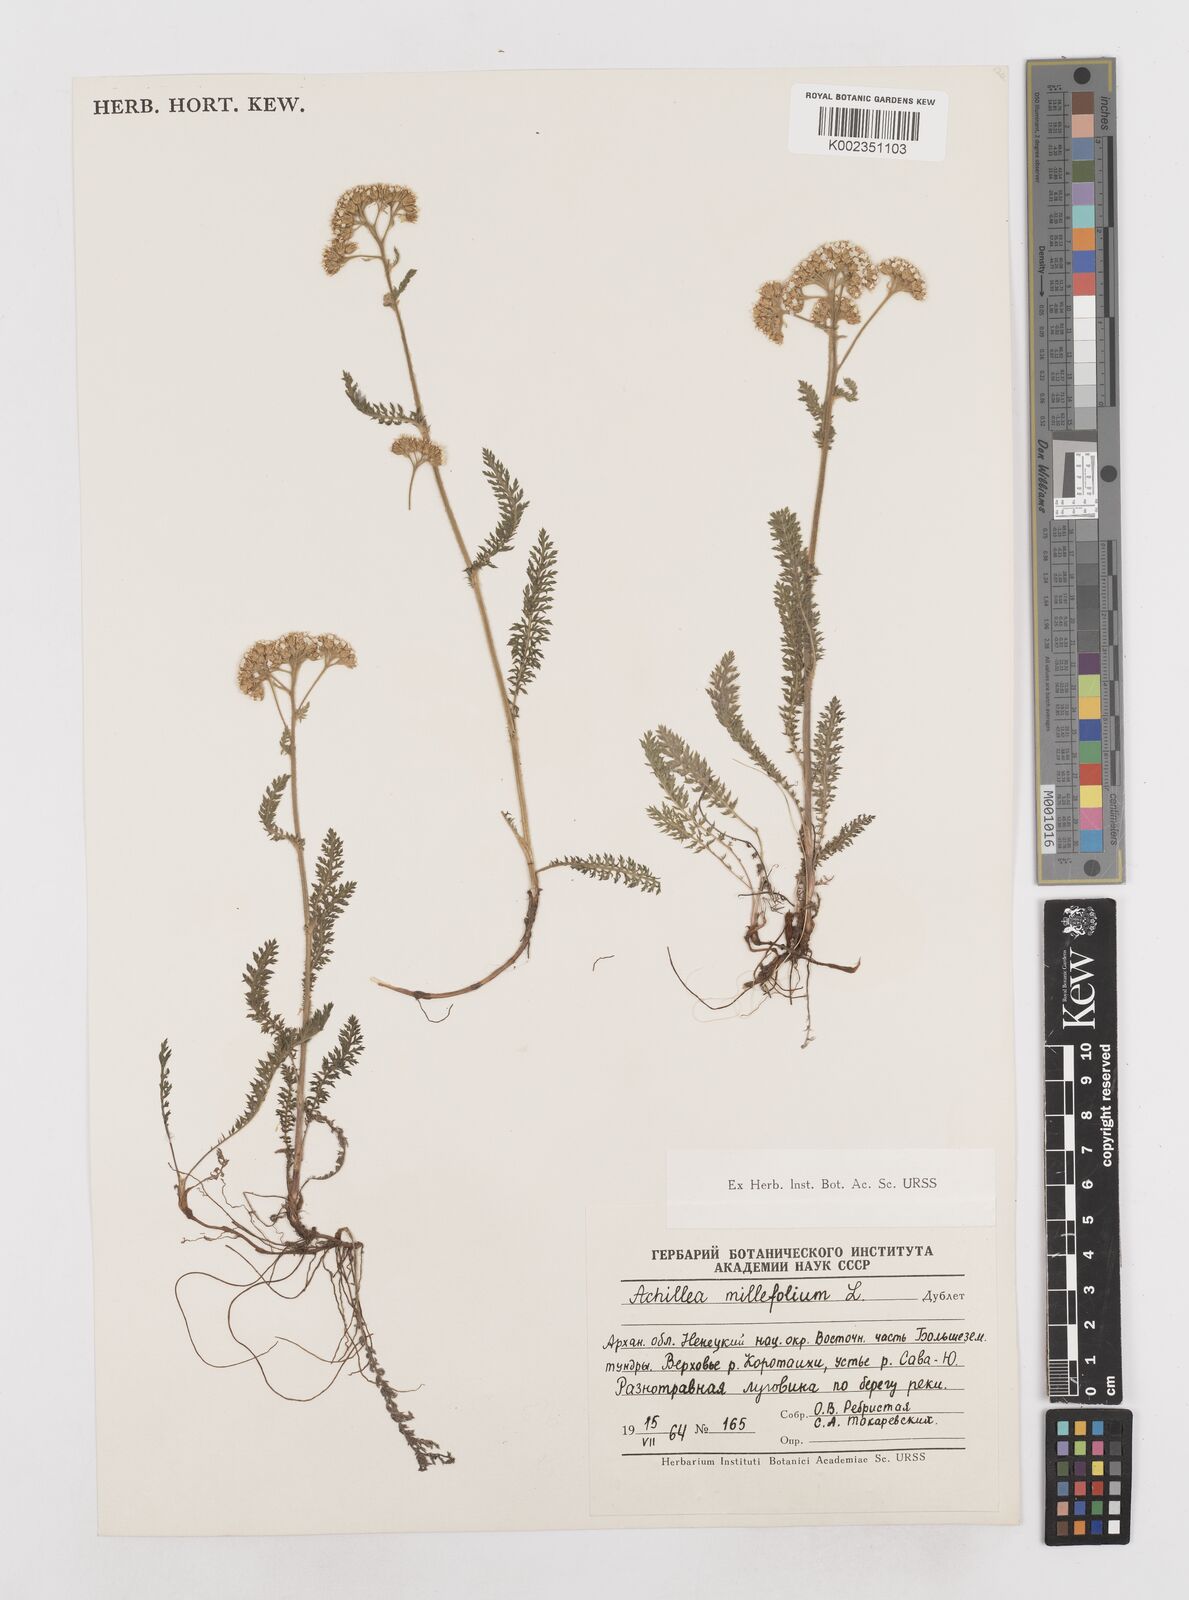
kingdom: Plantae
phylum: Tracheophyta
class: Magnoliopsida
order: Asterales
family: Asteraceae
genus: Achillea
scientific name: Achillea millefolium
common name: Yarrow
